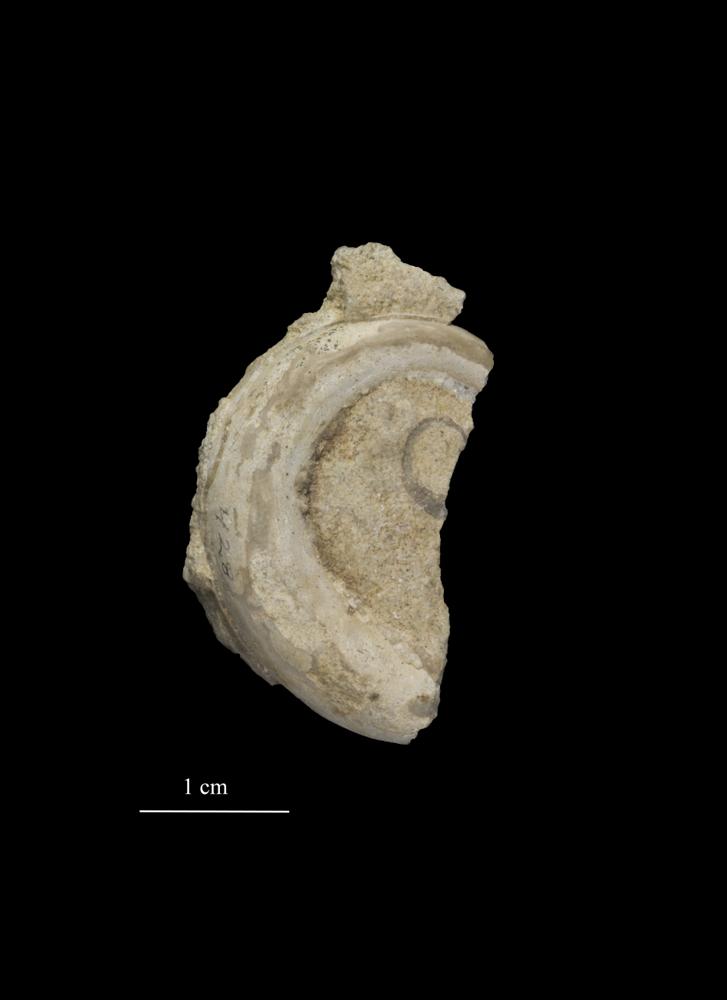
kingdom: Animalia
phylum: Mollusca
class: Gastropoda
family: Lesueurillidae
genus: Eccyliopterus
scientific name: Eccyliopterus regularis
